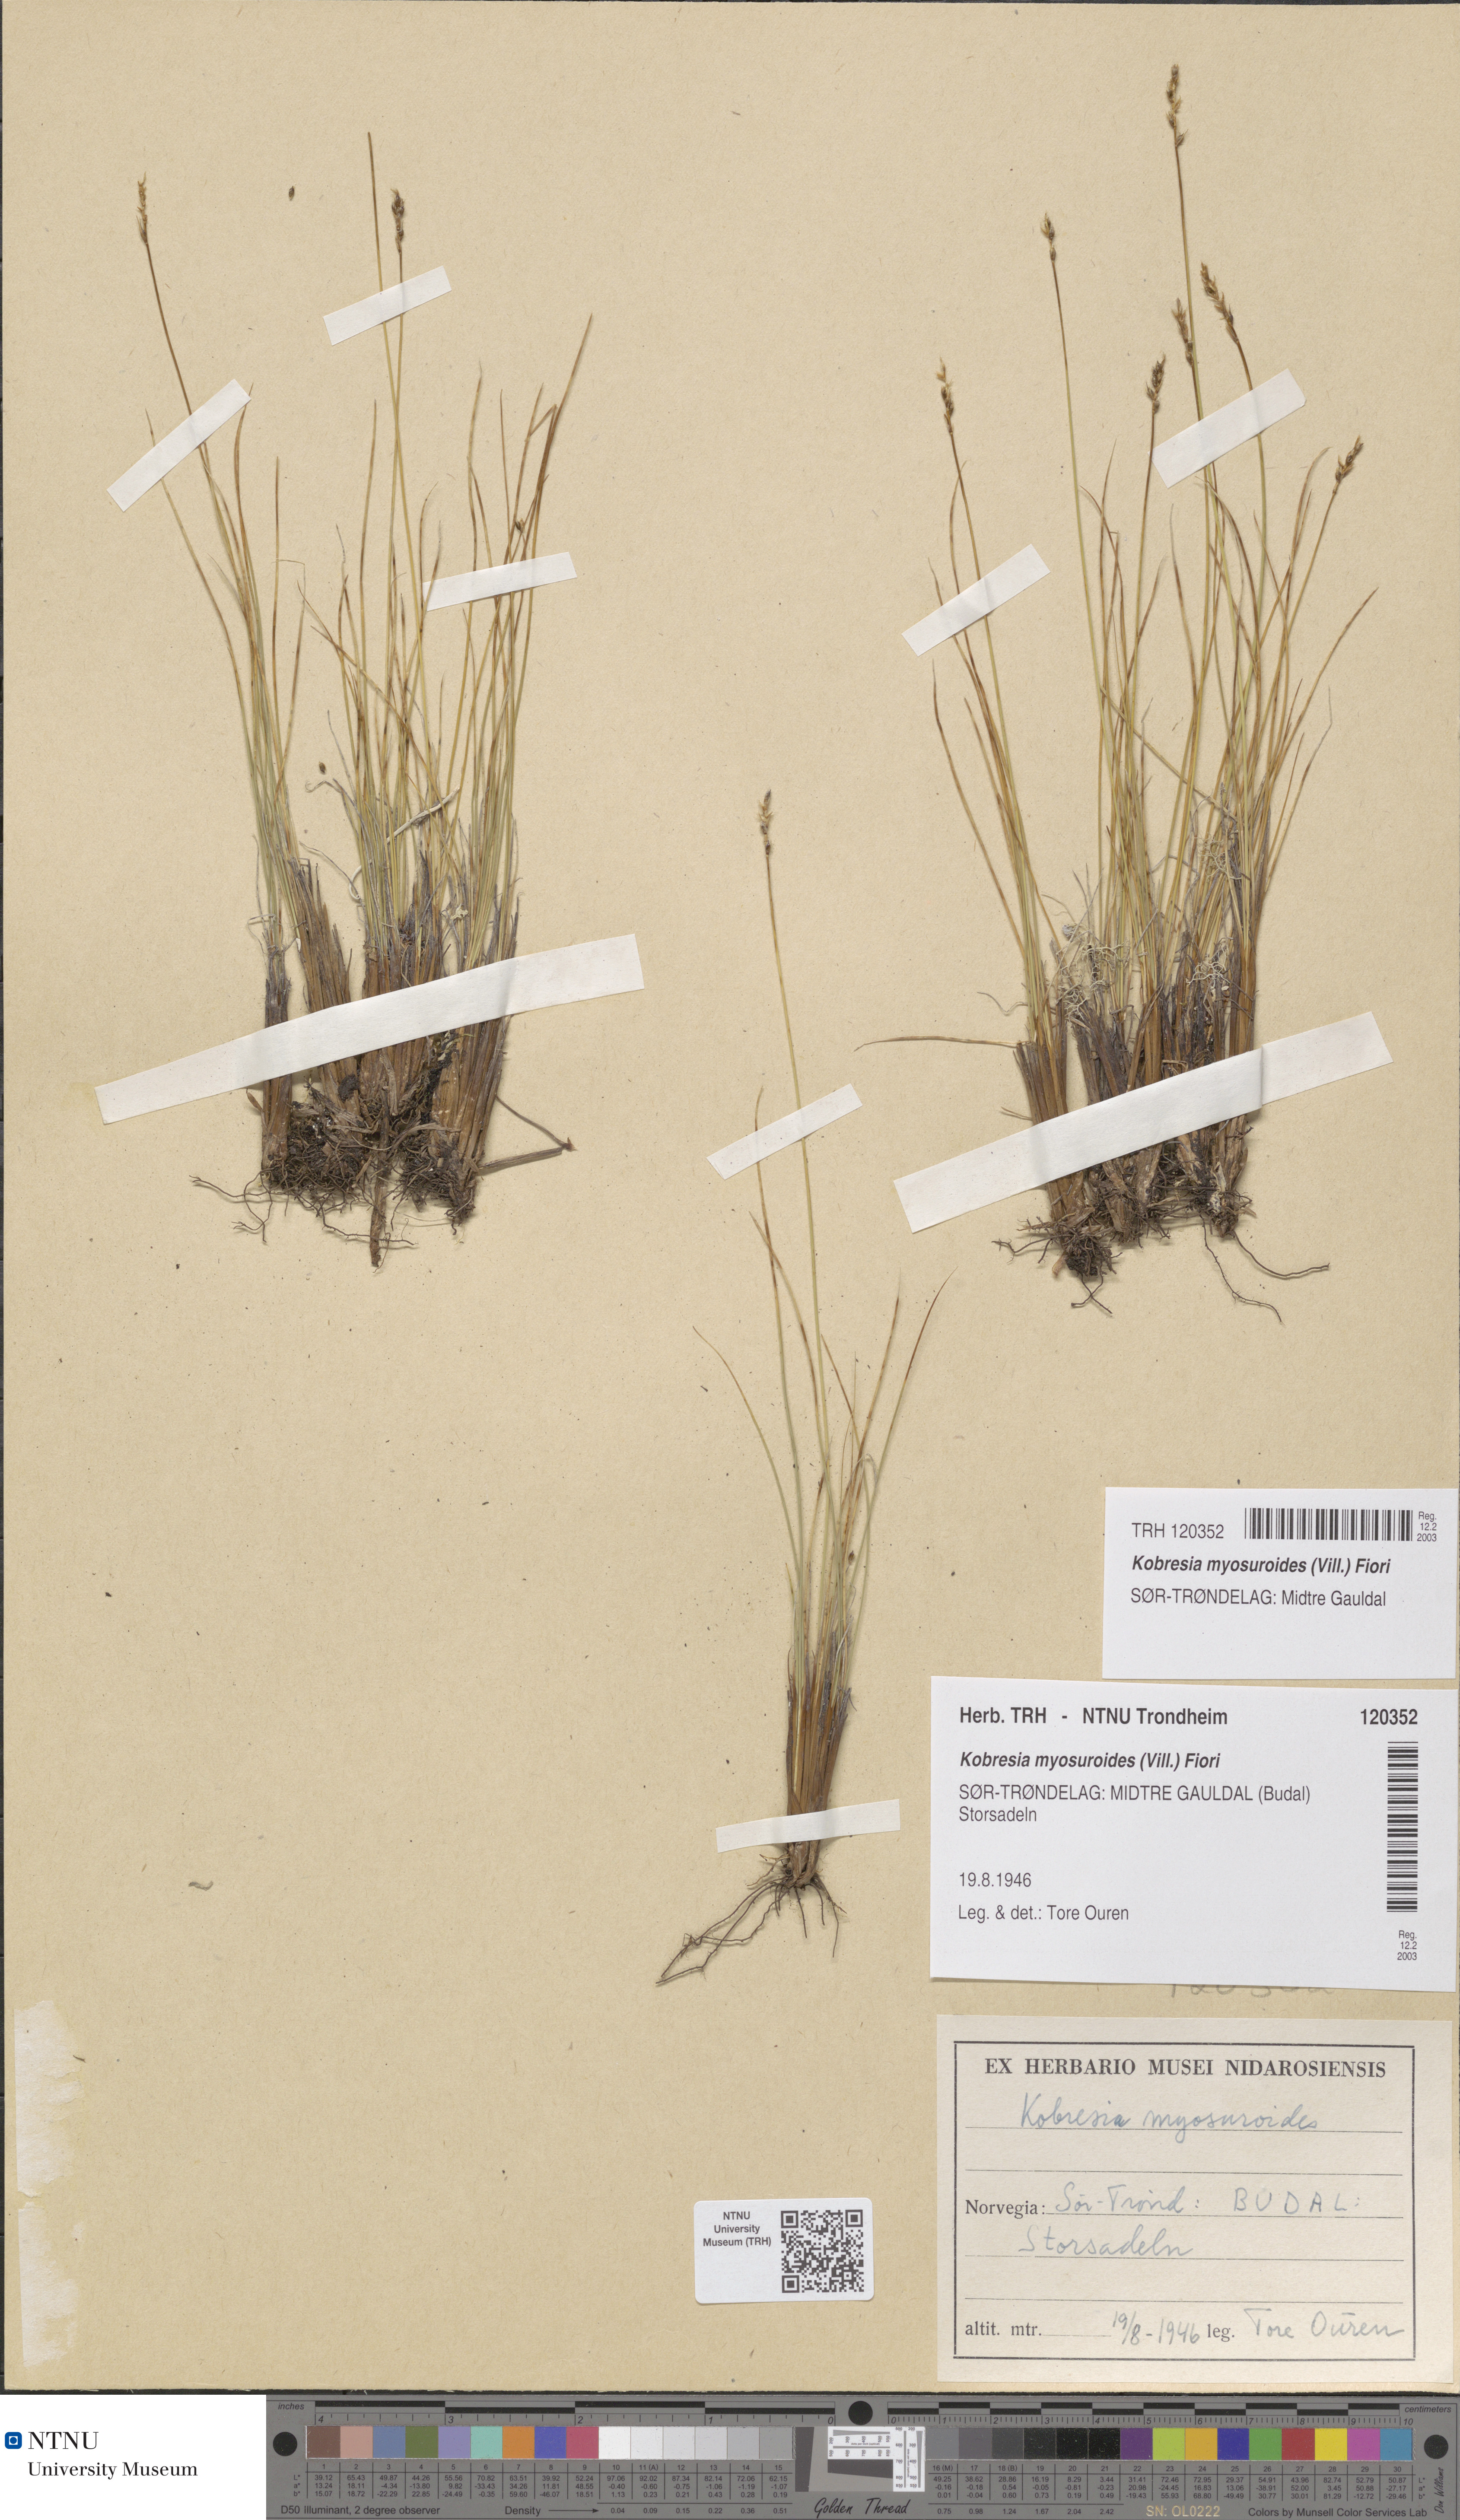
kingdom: Plantae
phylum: Tracheophyta
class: Liliopsida
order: Poales
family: Cyperaceae
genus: Carex
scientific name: Carex myosuroides
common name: Bellard's bog sedge
